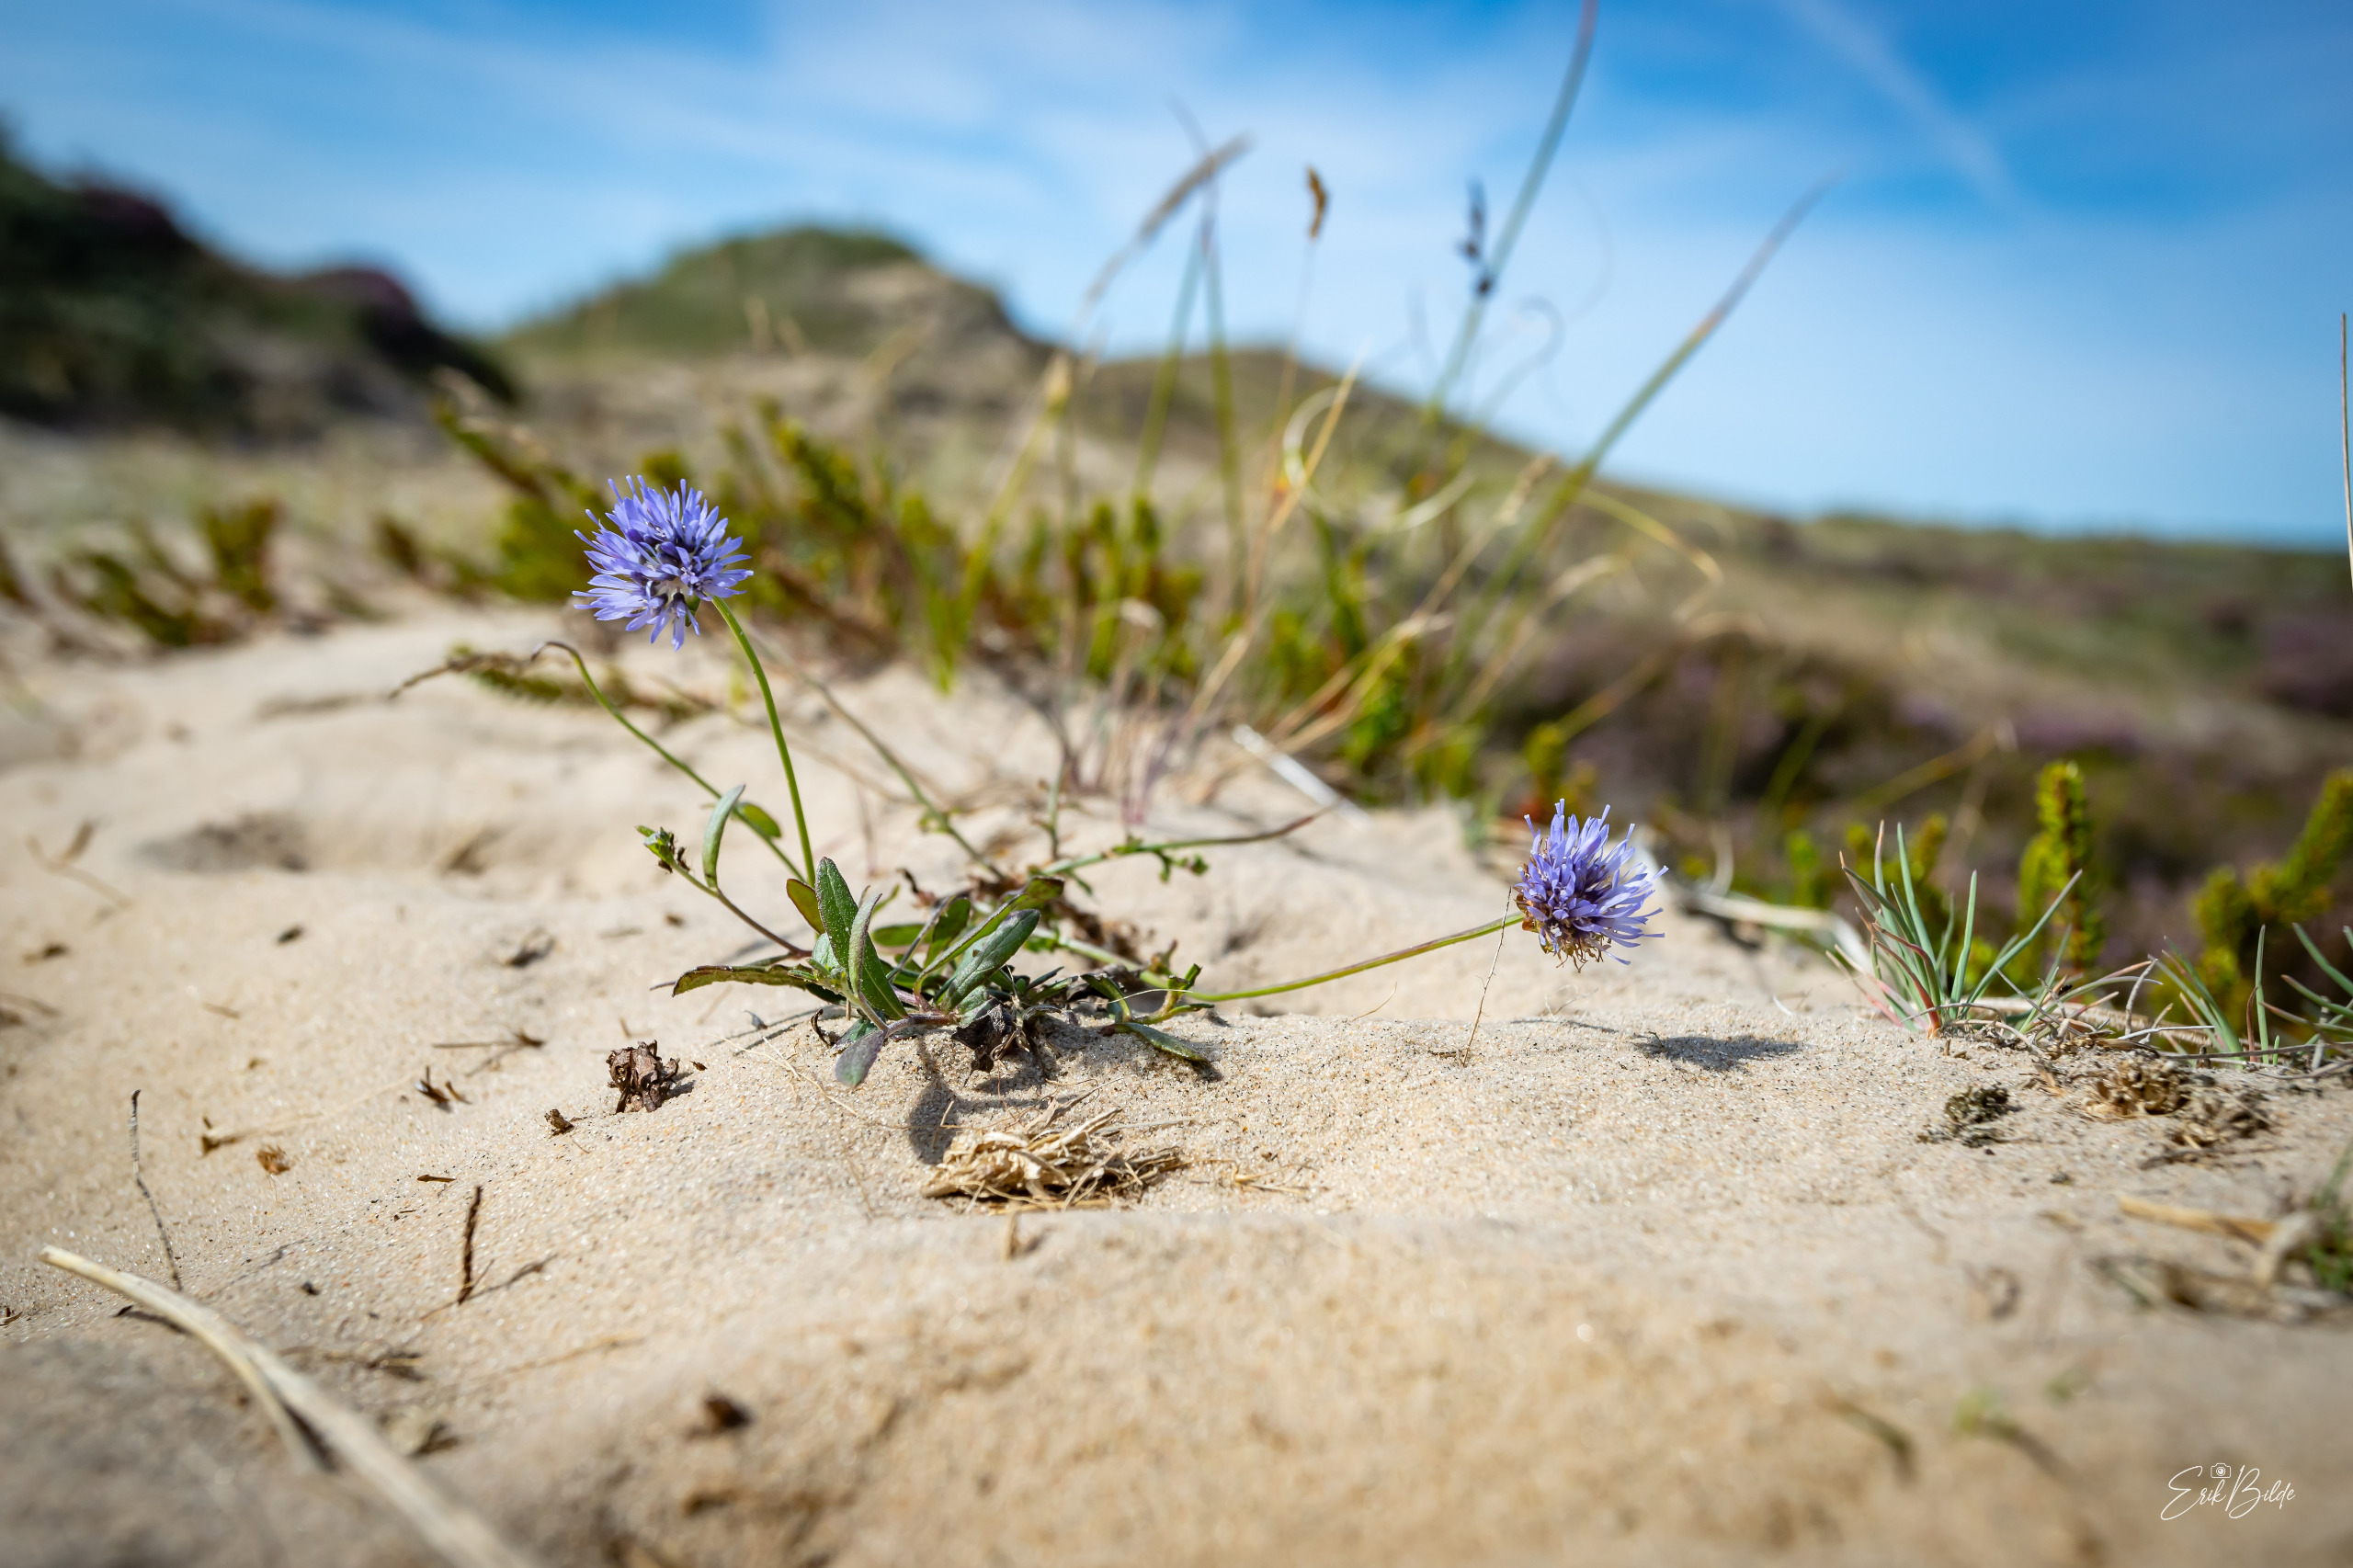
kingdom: Plantae
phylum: Tracheophyta
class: Magnoliopsida
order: Asterales
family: Campanulaceae
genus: Jasione
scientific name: Jasione montana
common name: Blåmunke
